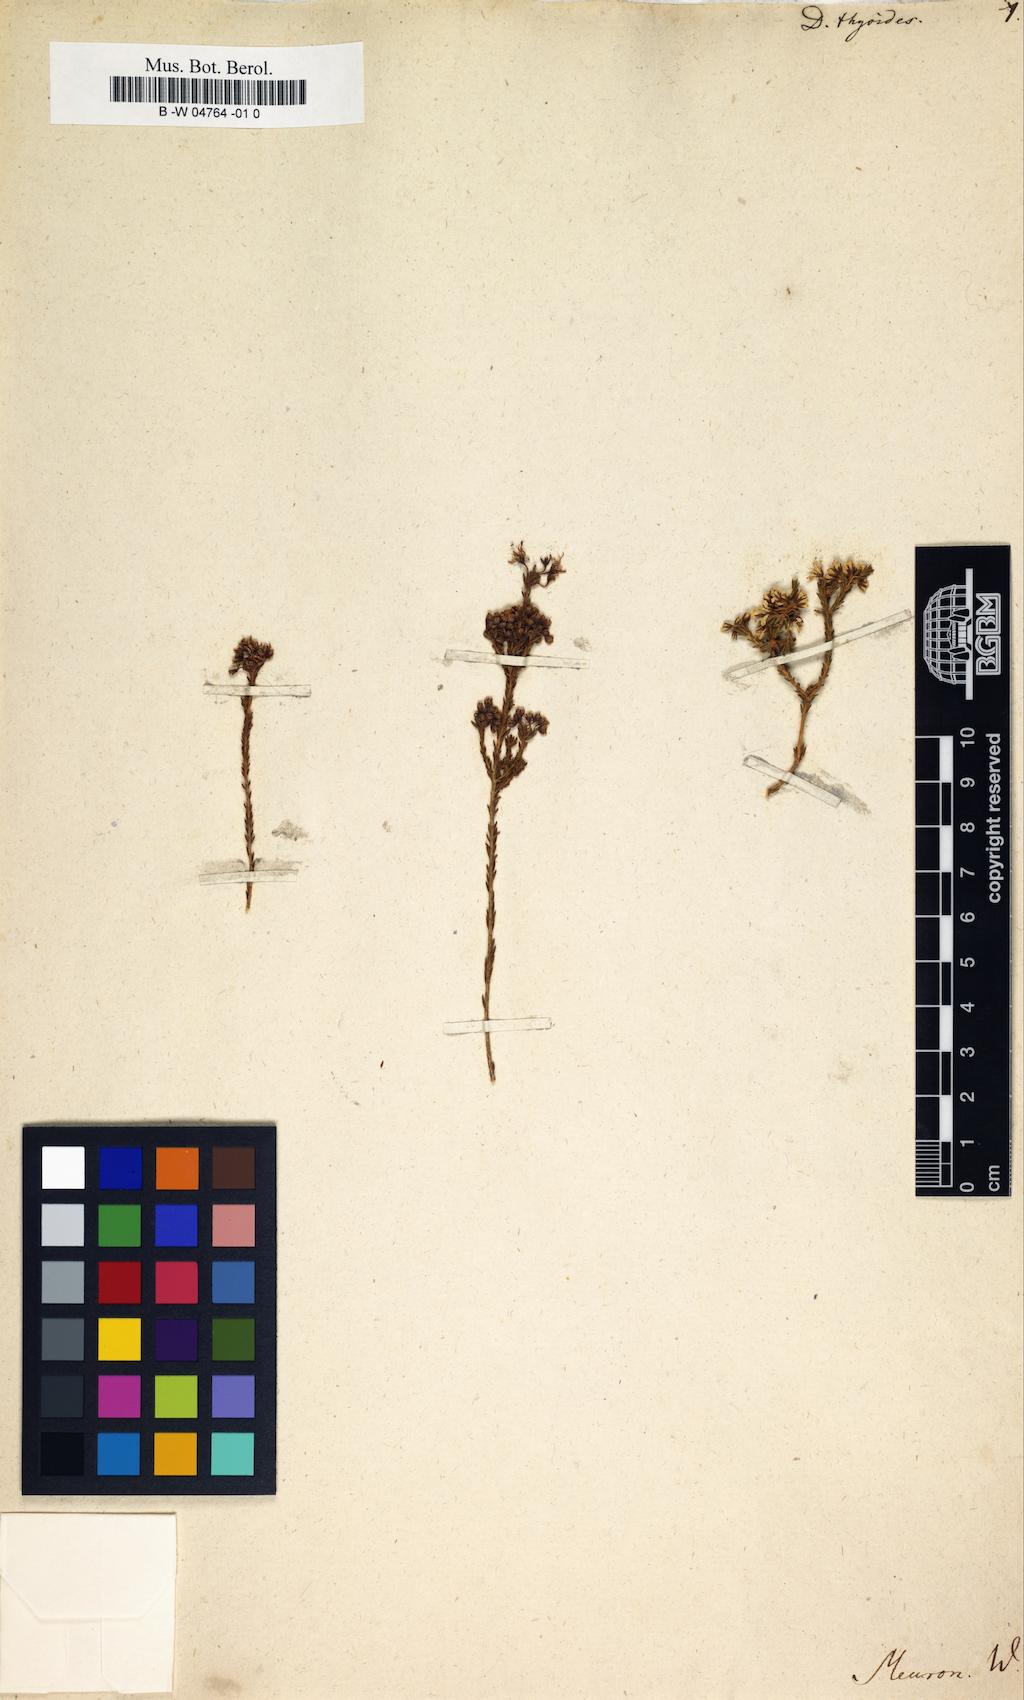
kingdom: Plantae
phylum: Tracheophyta
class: Magnoliopsida
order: Sapindales
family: Rutaceae
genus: Agathosma
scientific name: Agathosma capensis
